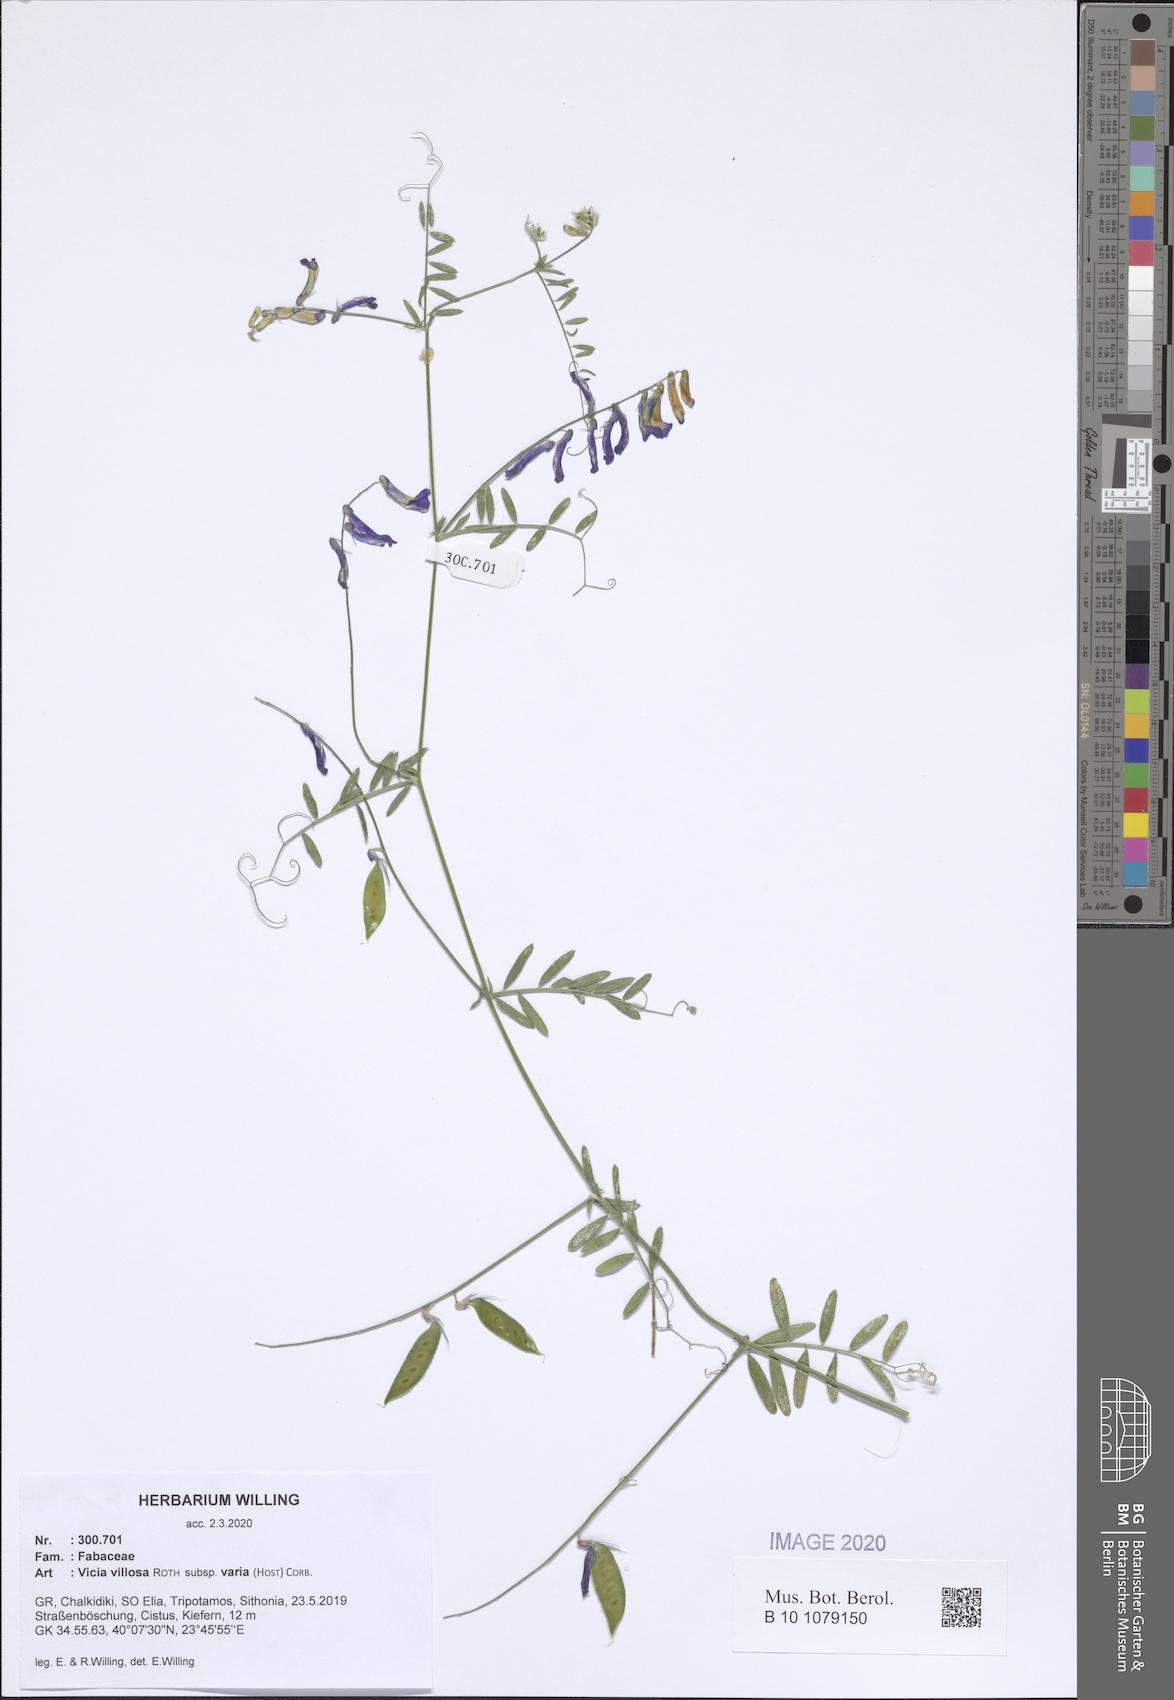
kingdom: Plantae
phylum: Tracheophyta
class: Magnoliopsida
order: Fabales
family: Fabaceae
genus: Vicia
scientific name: Vicia villosa
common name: Fodder vetch
